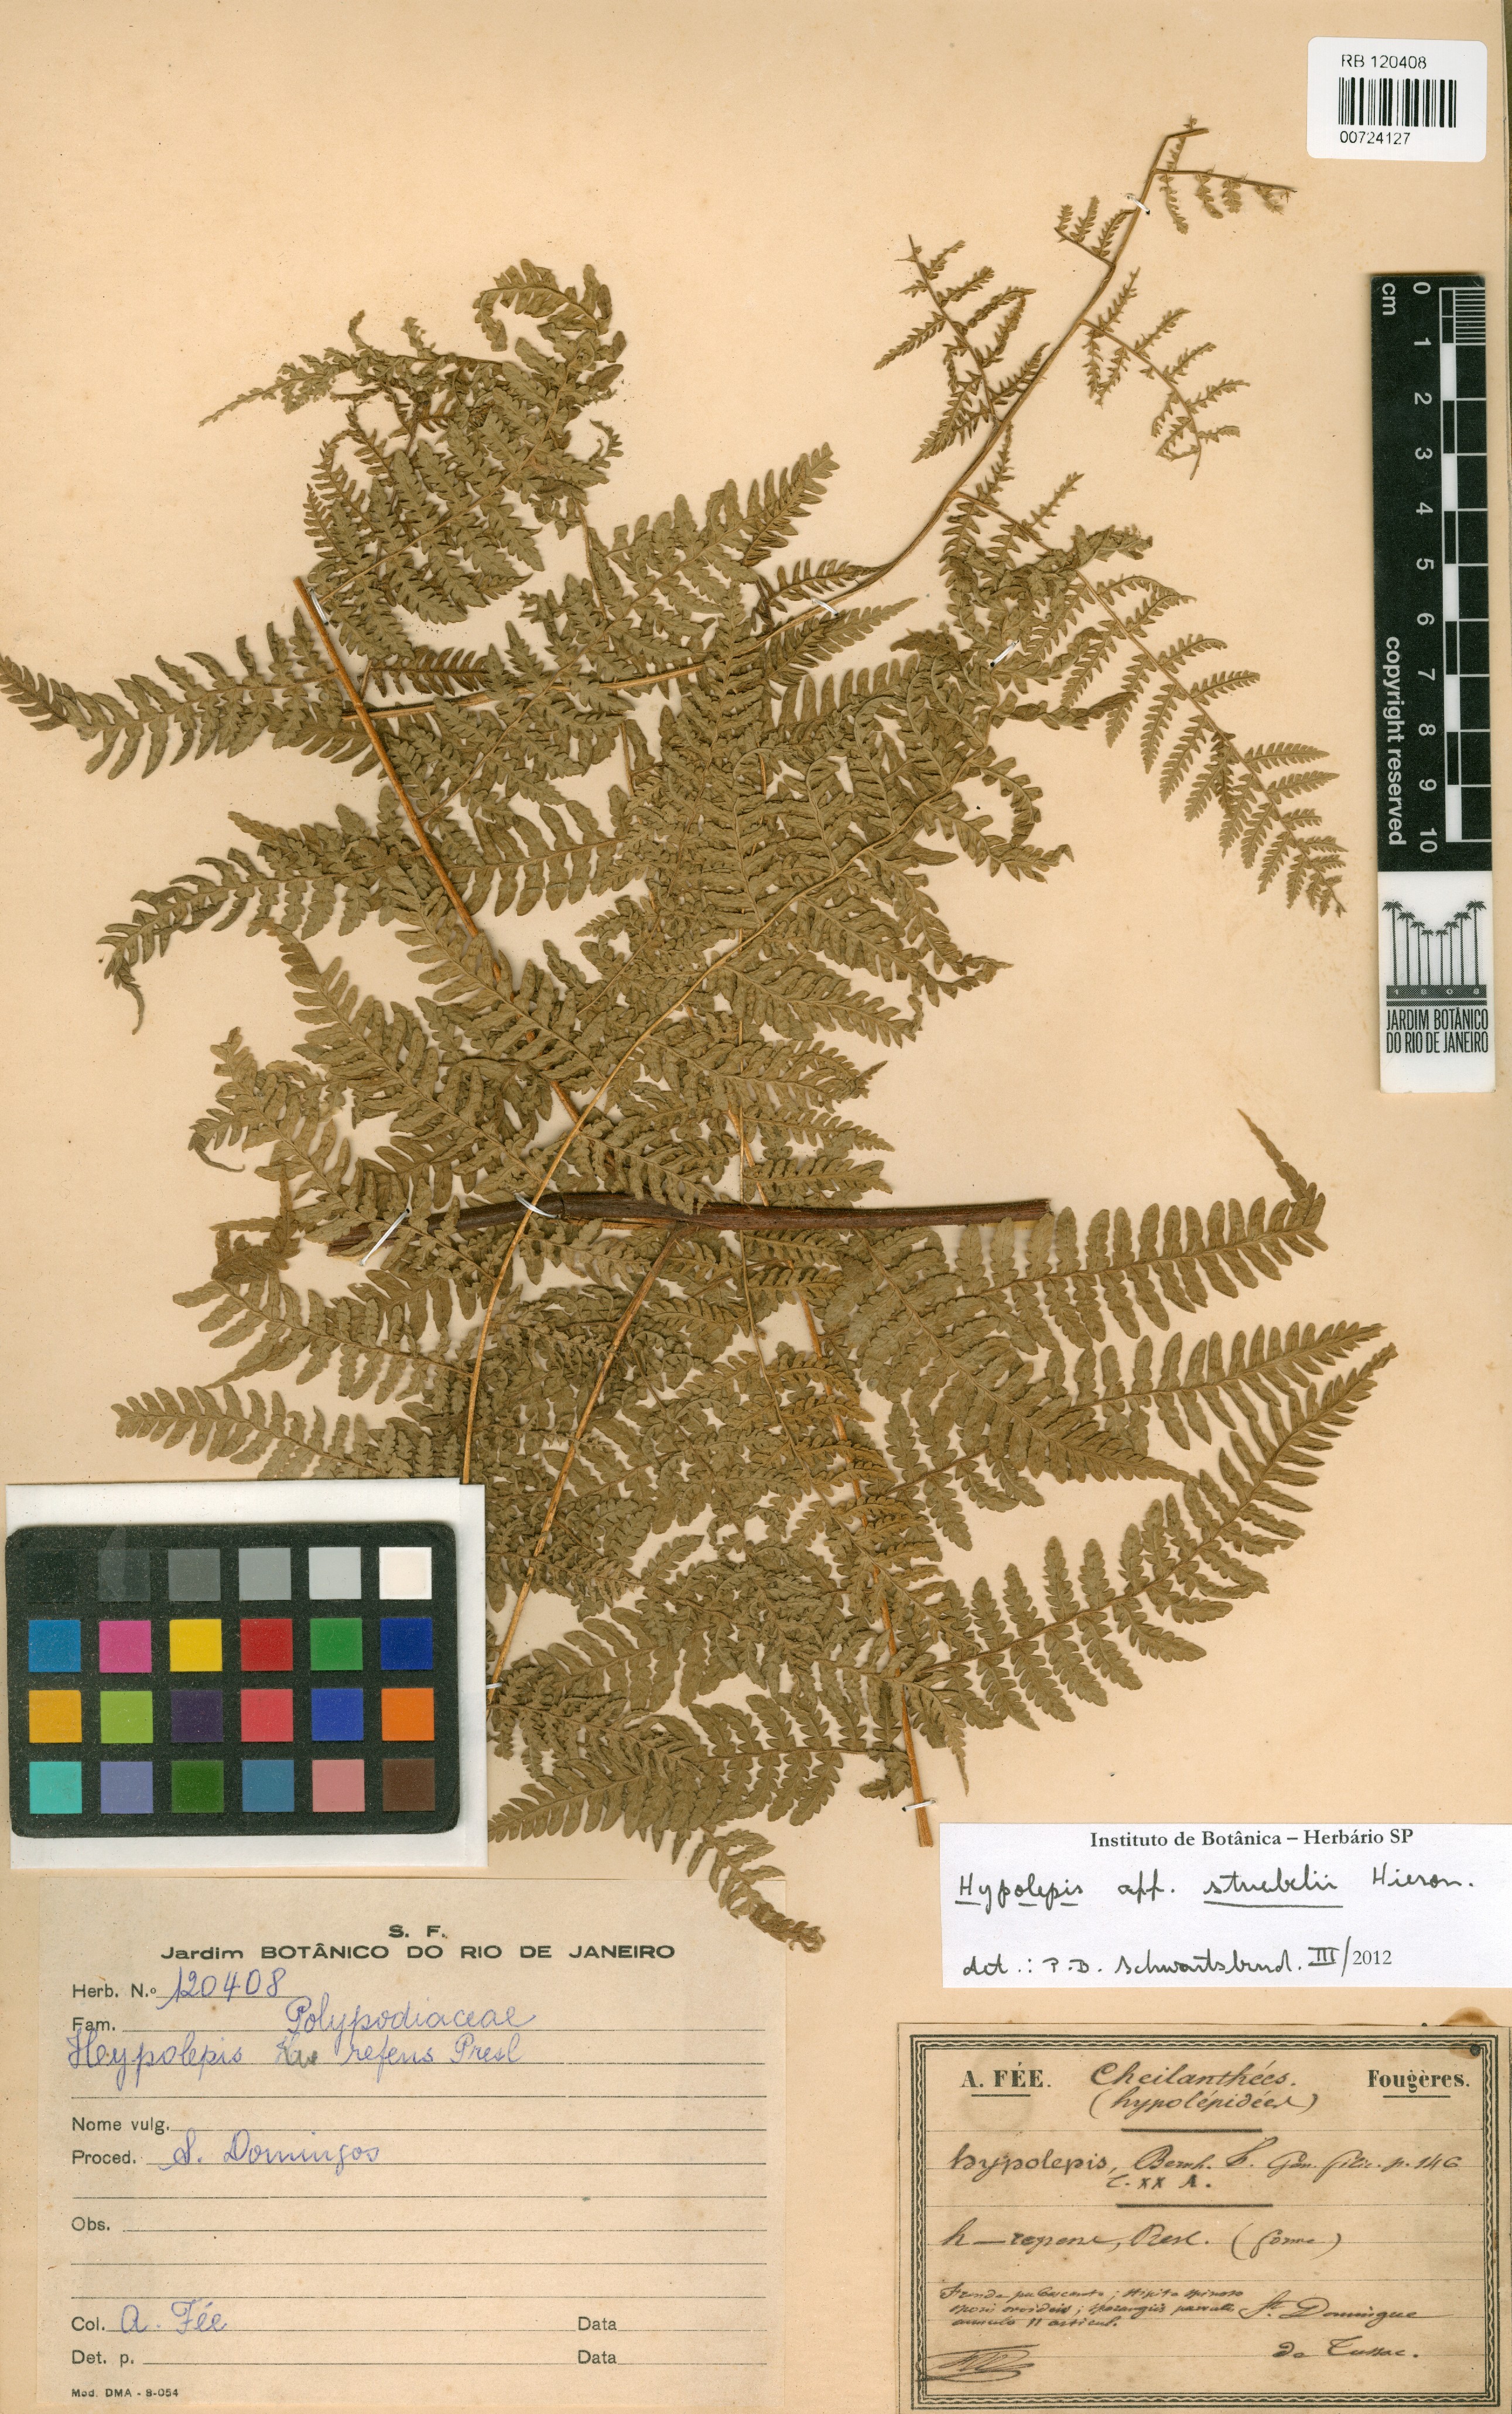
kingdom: Plantae
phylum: Tracheophyta
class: Polypodiopsida
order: Polypodiales
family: Dennstaedtiaceae
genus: Hypolepis
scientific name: Hypolepis feeana
